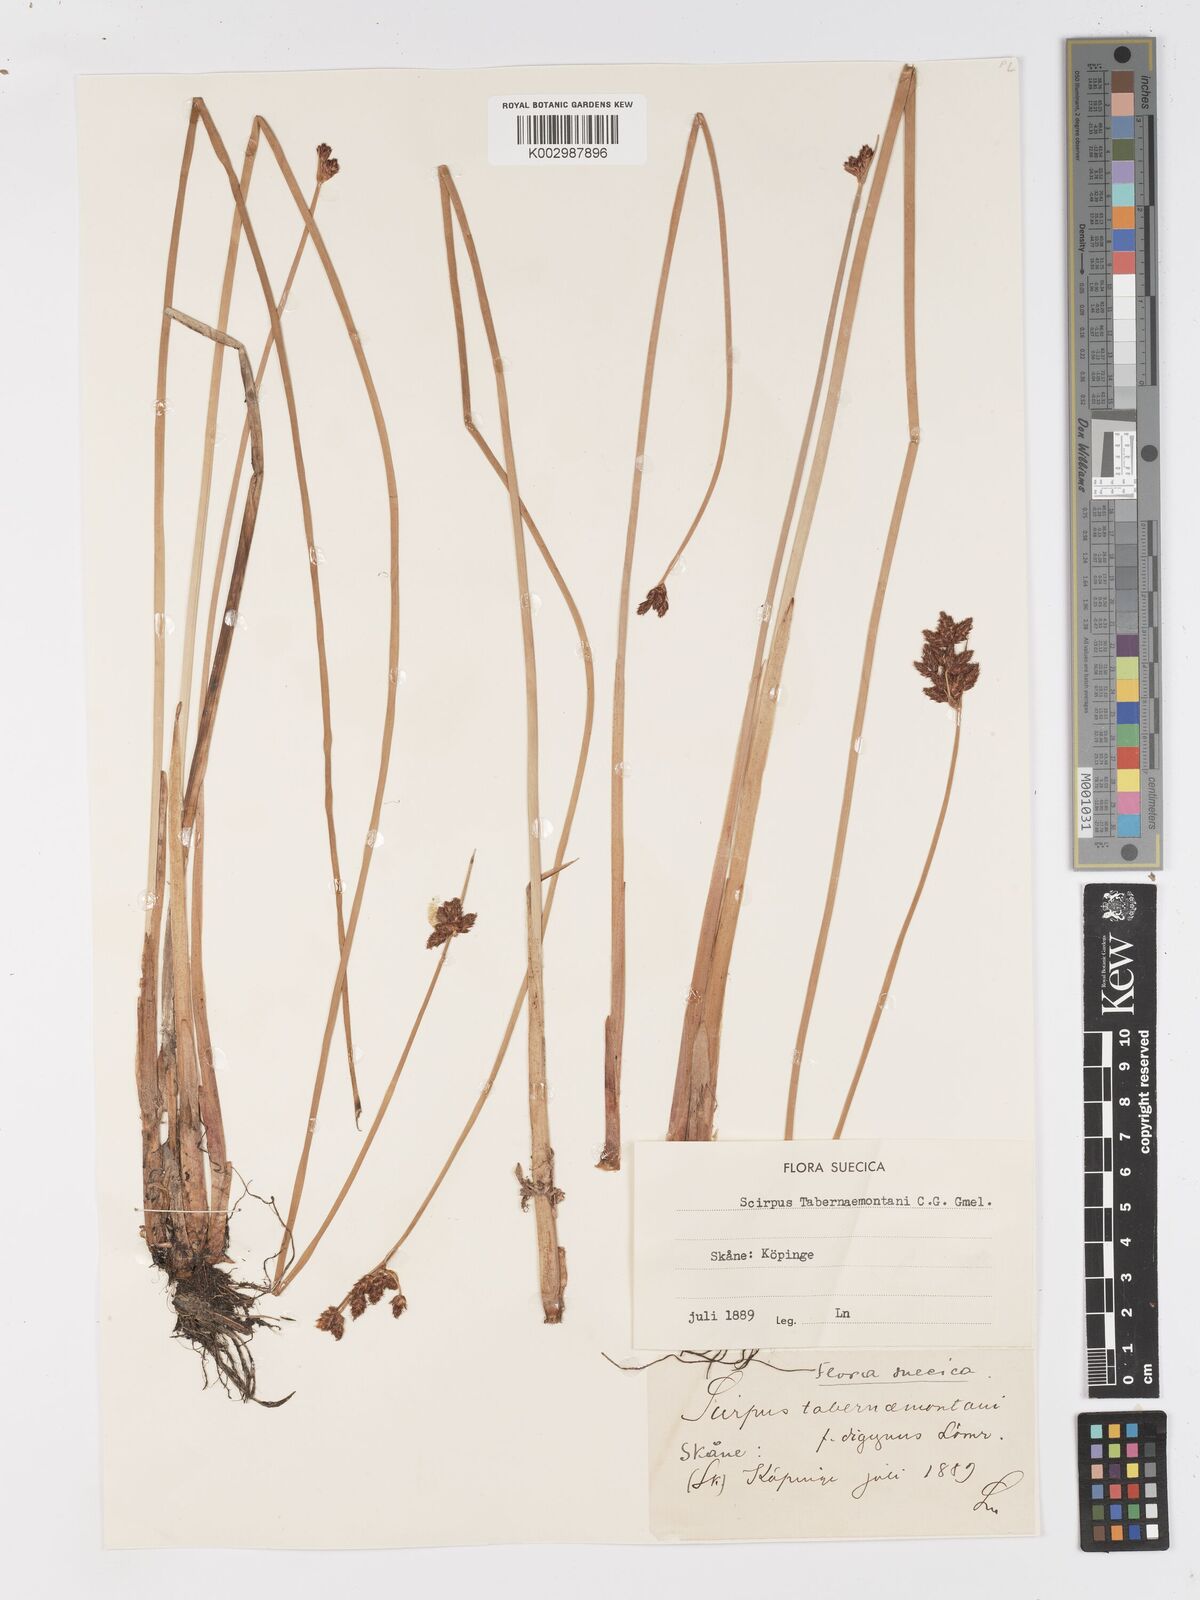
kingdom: Plantae
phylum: Tracheophyta
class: Liliopsida
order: Poales
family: Cyperaceae
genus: Schoenoplectus
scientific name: Schoenoplectus tabernaemontani
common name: Grey club-rush
